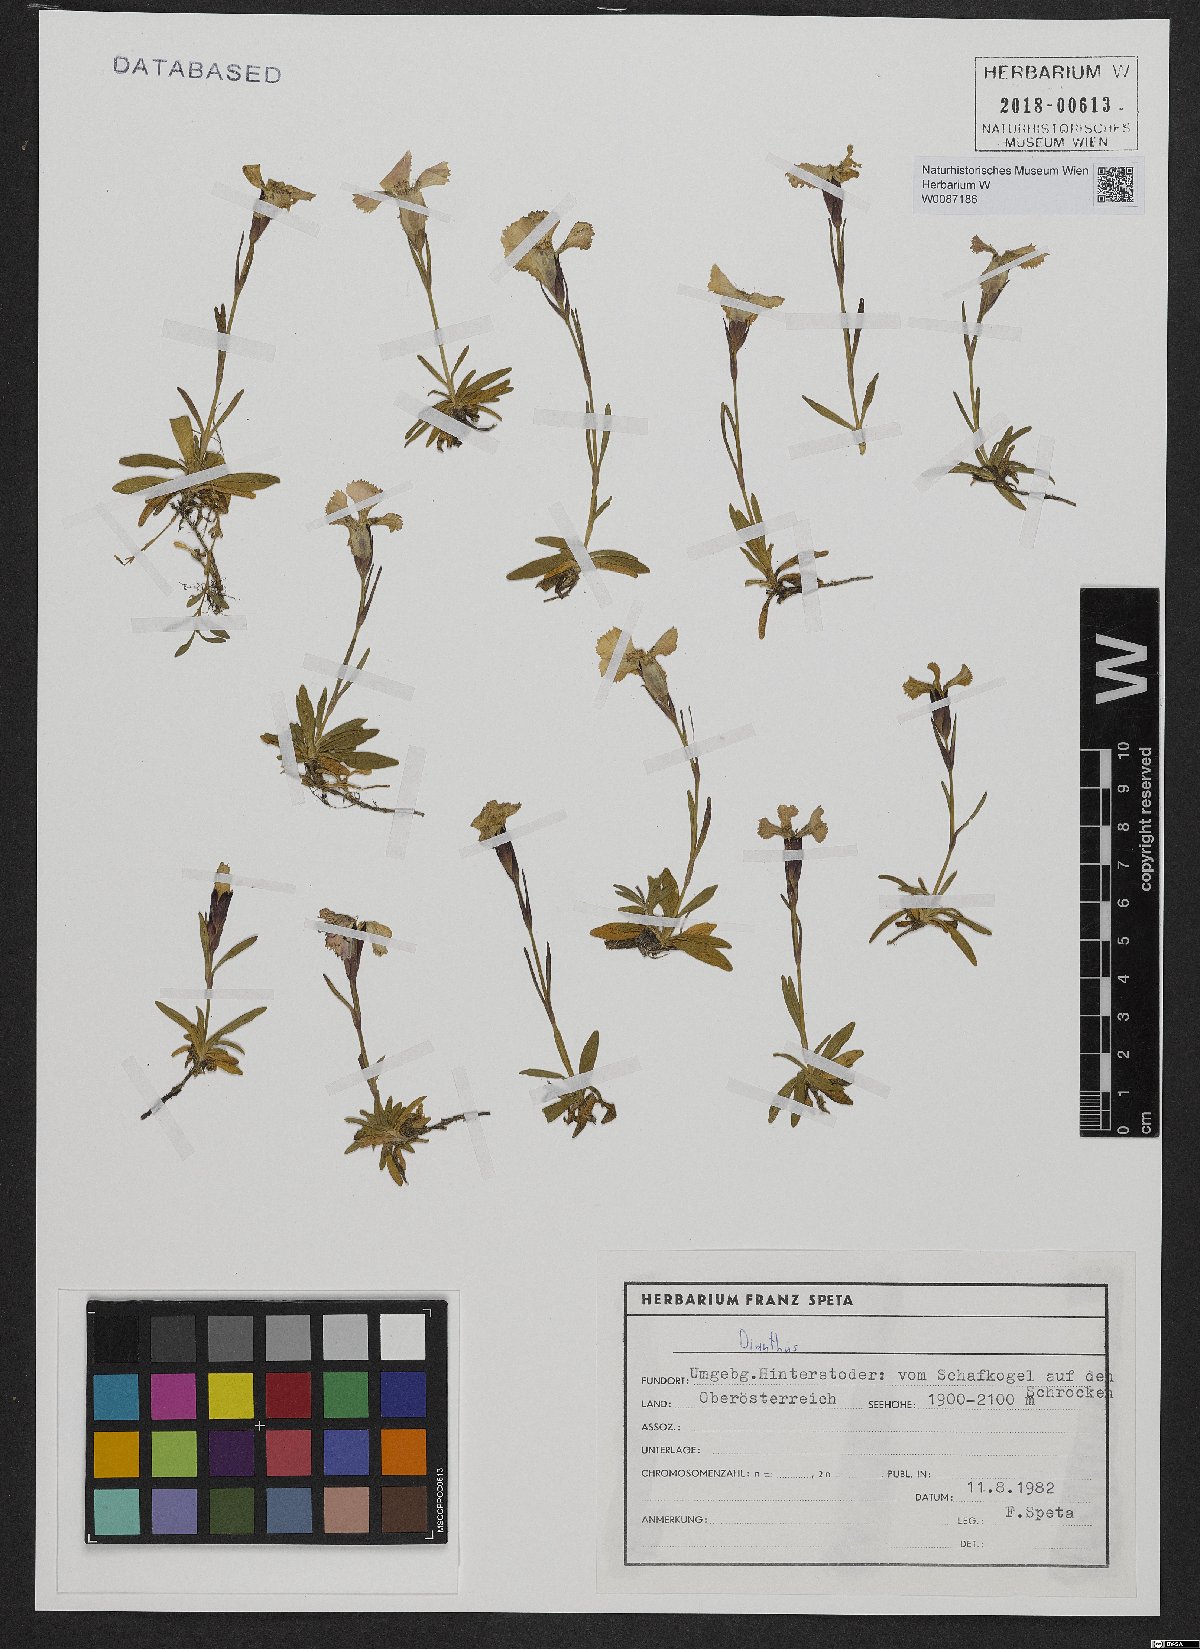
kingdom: Plantae
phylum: Tracheophyta
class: Magnoliopsida
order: Caryophyllales
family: Caryophyllaceae
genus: Dianthus
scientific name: Dianthus alpinus
